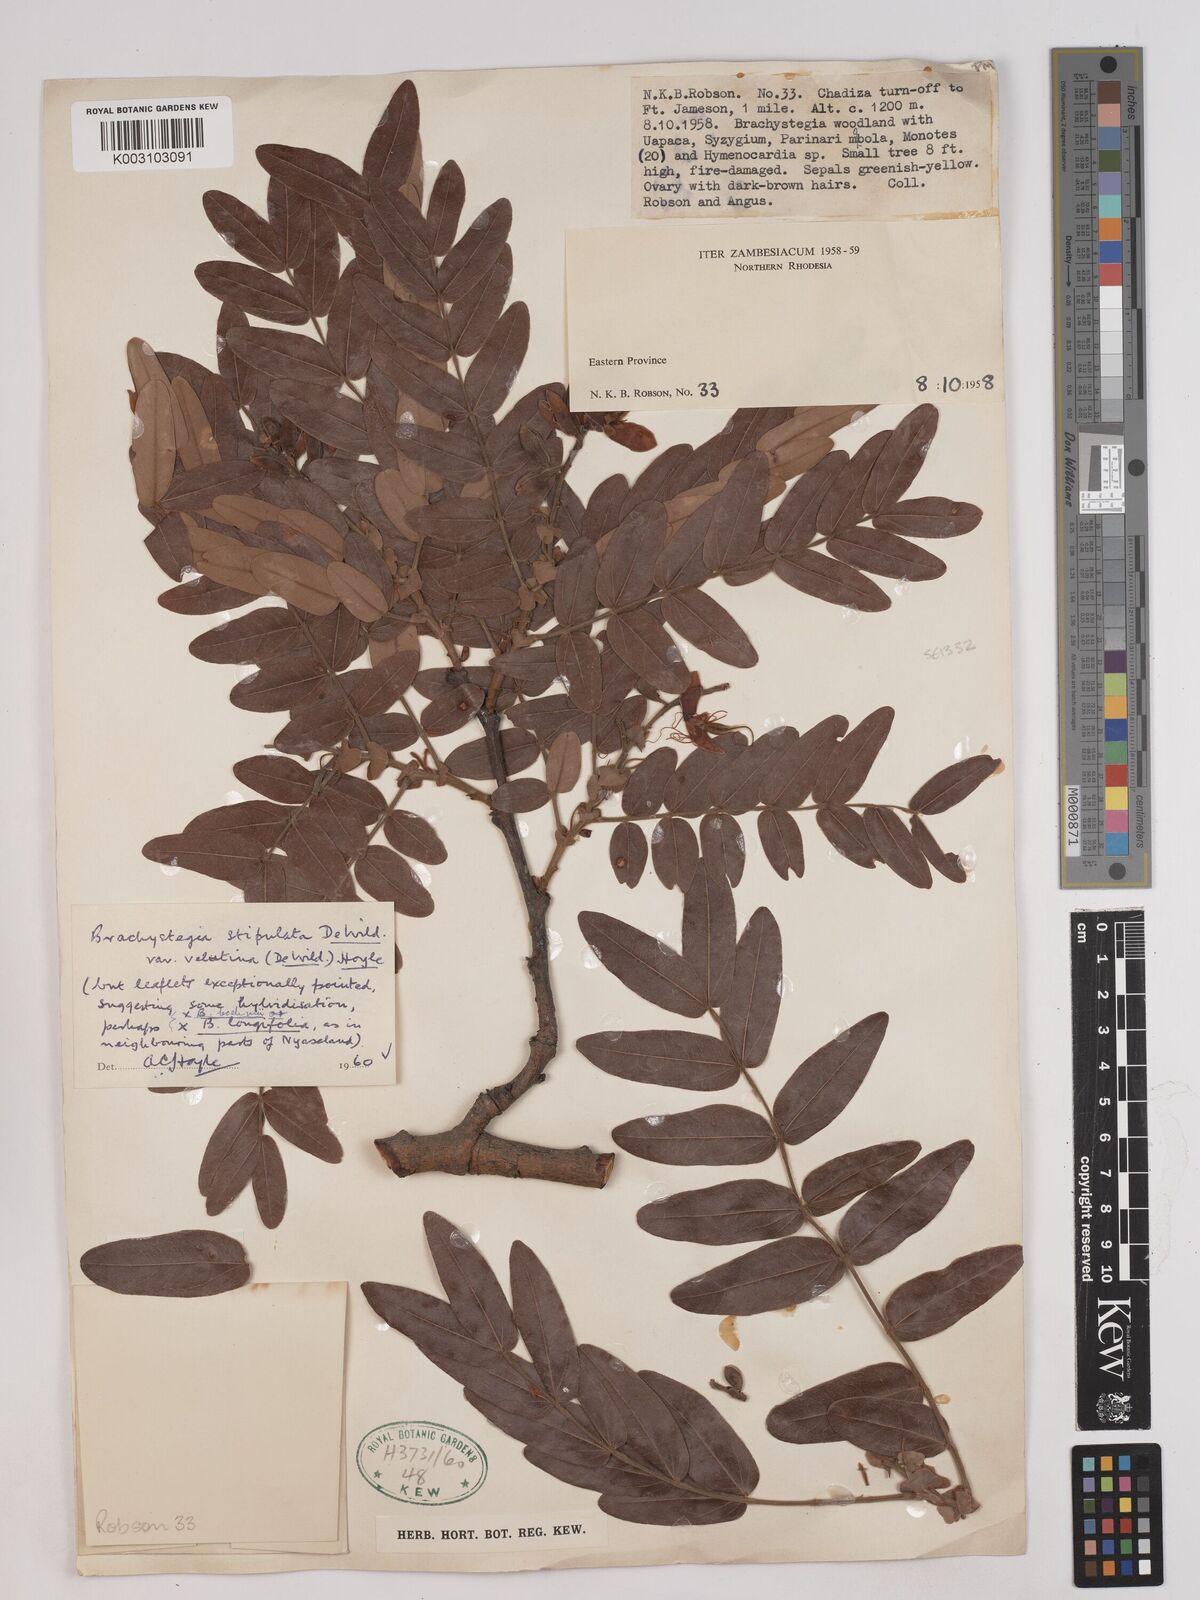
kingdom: Plantae
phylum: Tracheophyta
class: Magnoliopsida
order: Fabales
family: Fabaceae
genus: Brachystegia
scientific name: Brachystegia stipulata
